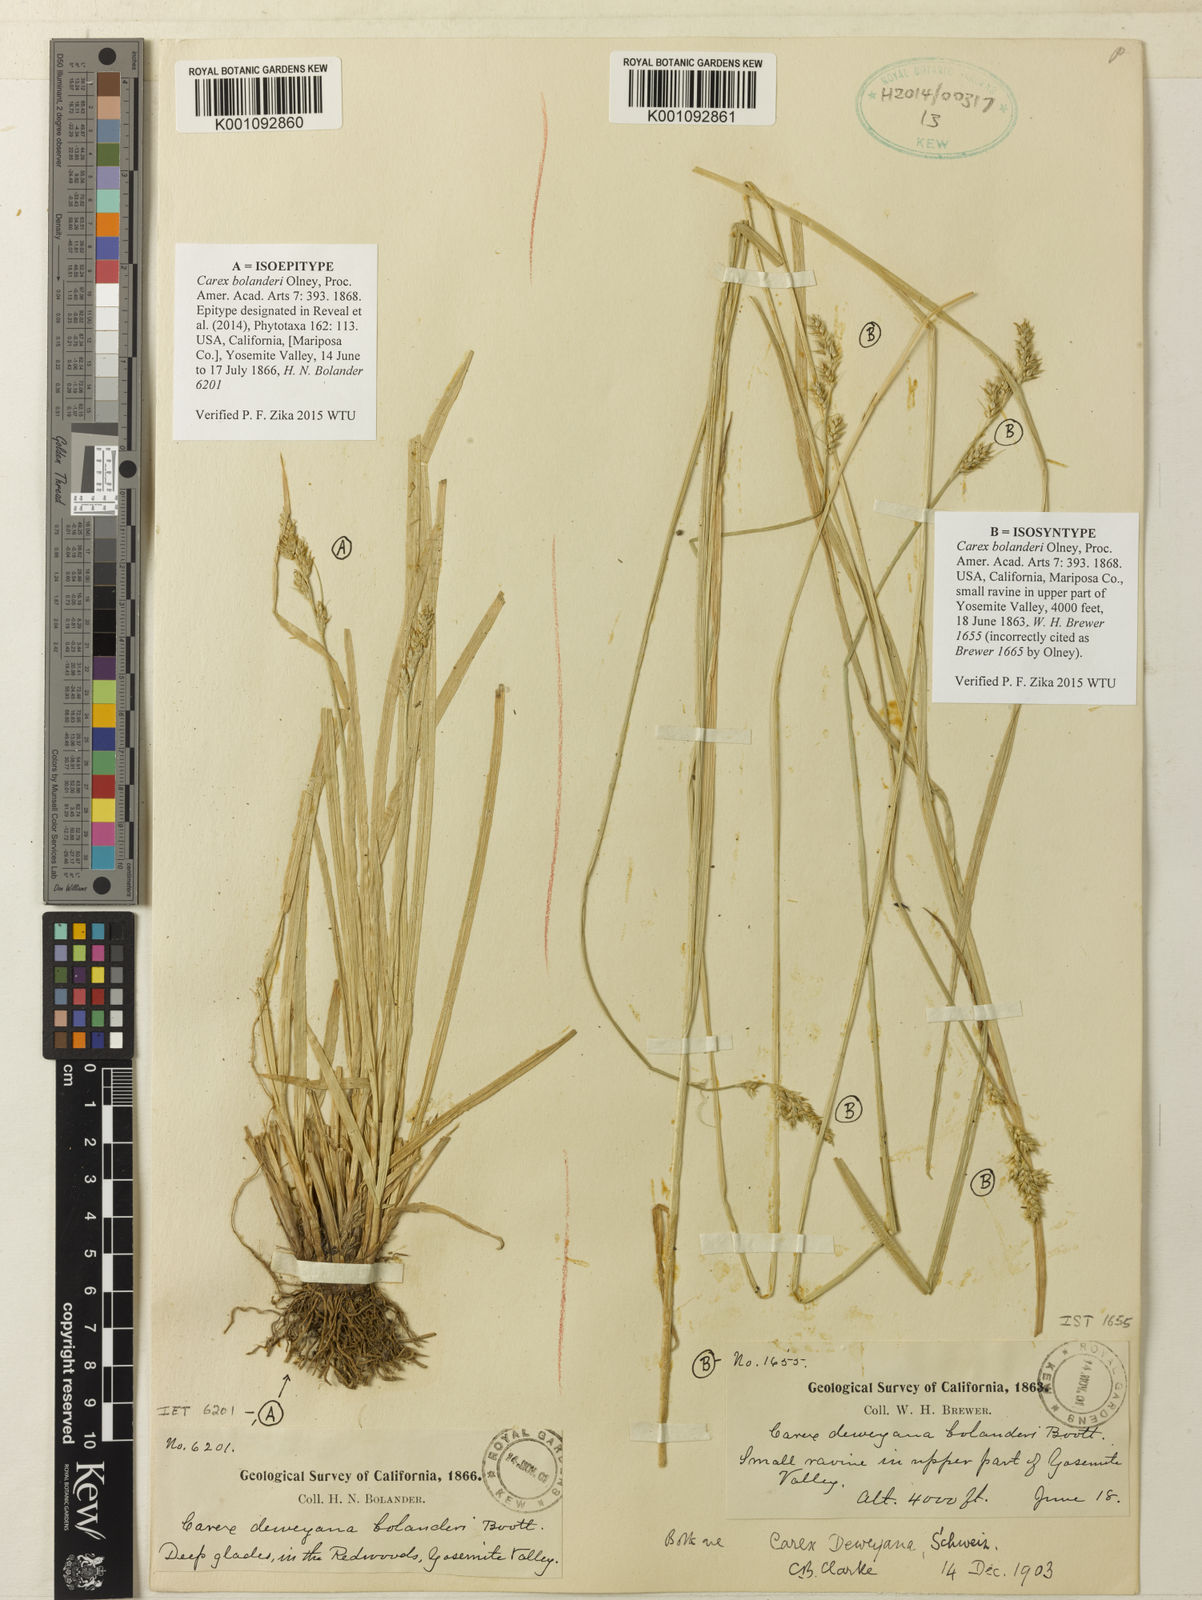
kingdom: Plantae
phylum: Tracheophyta
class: Liliopsida
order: Poales
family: Cyperaceae
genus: Carex
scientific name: Carex bolanderi
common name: Bolander's sedge
